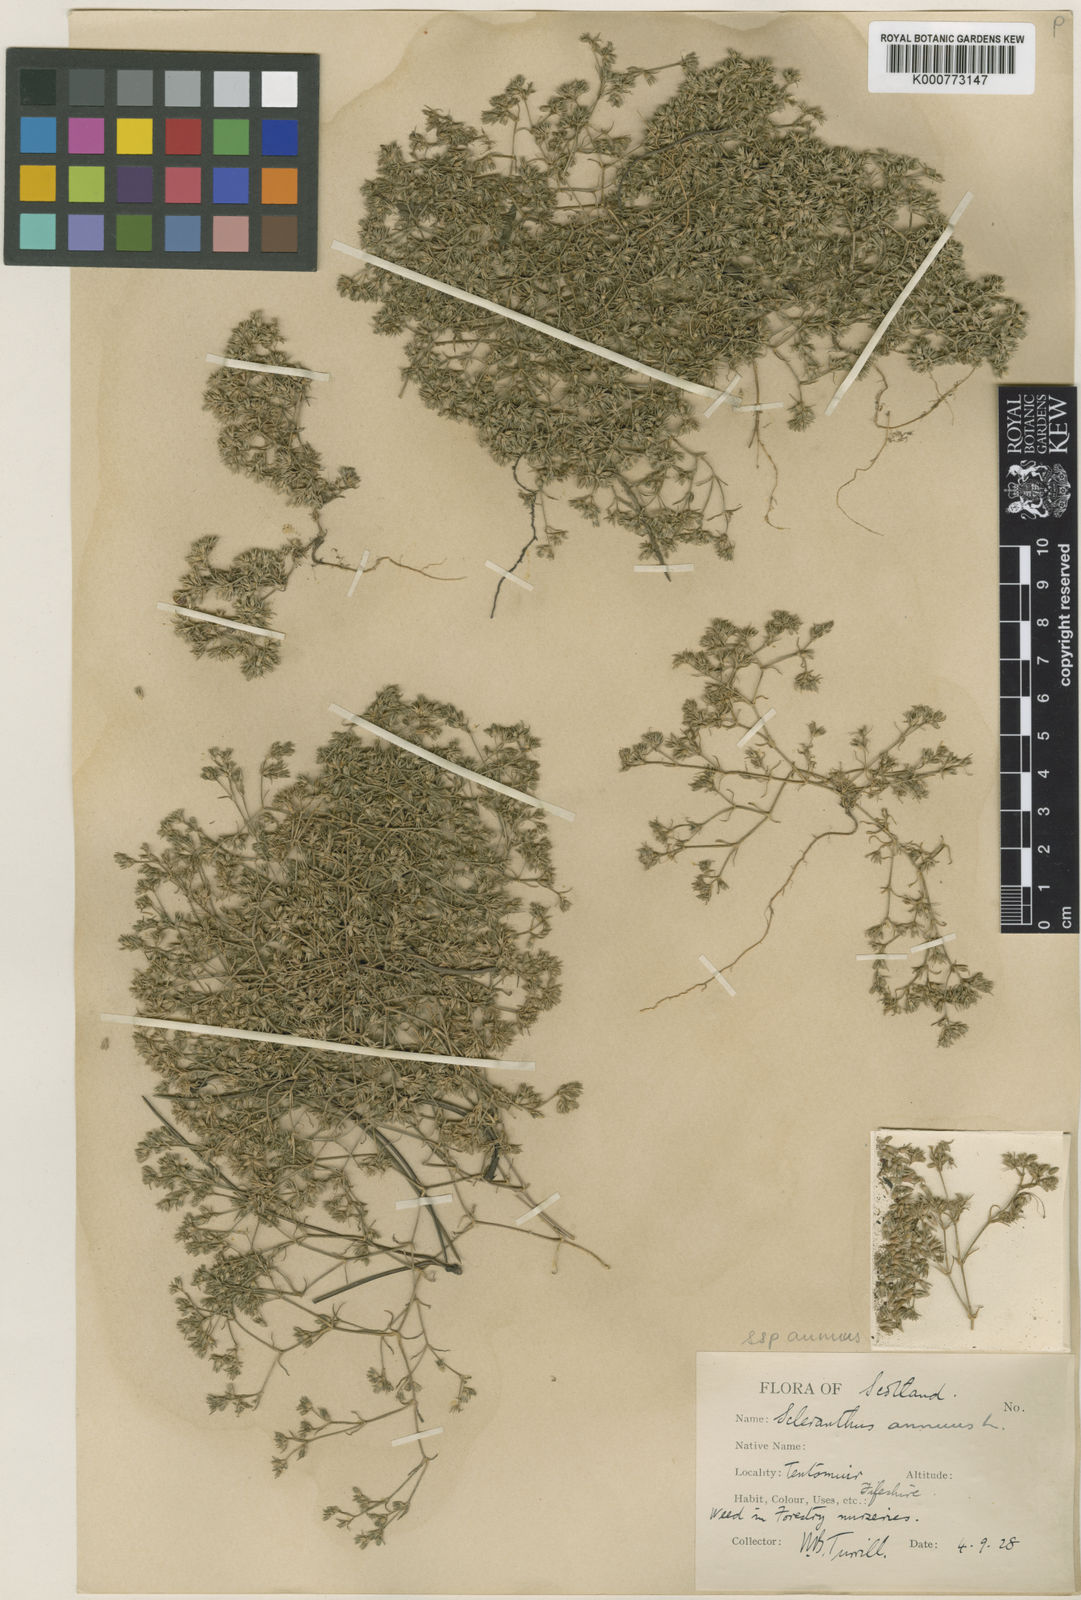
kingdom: Plantae
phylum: Tracheophyta
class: Magnoliopsida
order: Caryophyllales
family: Caryophyllaceae
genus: Scleranthus
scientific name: Scleranthus annuus
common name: Annual knawel
